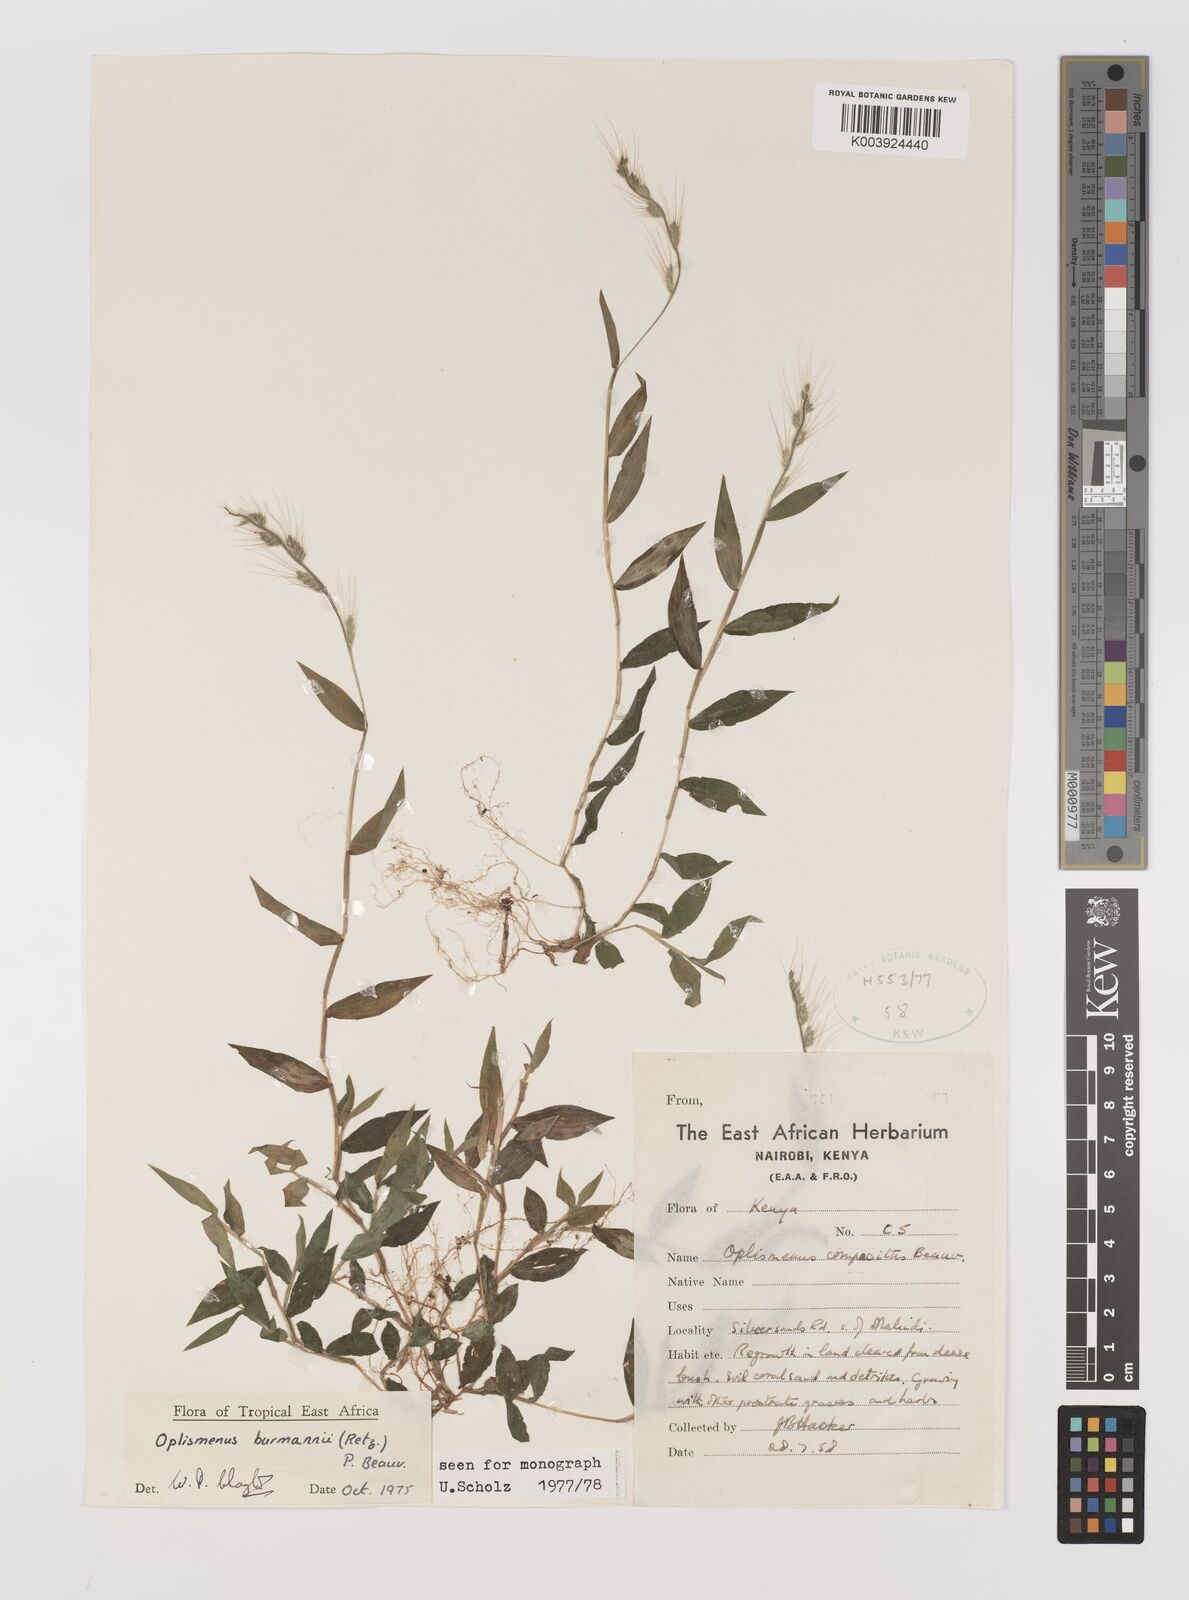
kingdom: Plantae
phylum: Tracheophyta
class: Liliopsida
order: Poales
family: Poaceae
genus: Oplismenus
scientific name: Oplismenus burmanni
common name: Burmann's basketgrass
